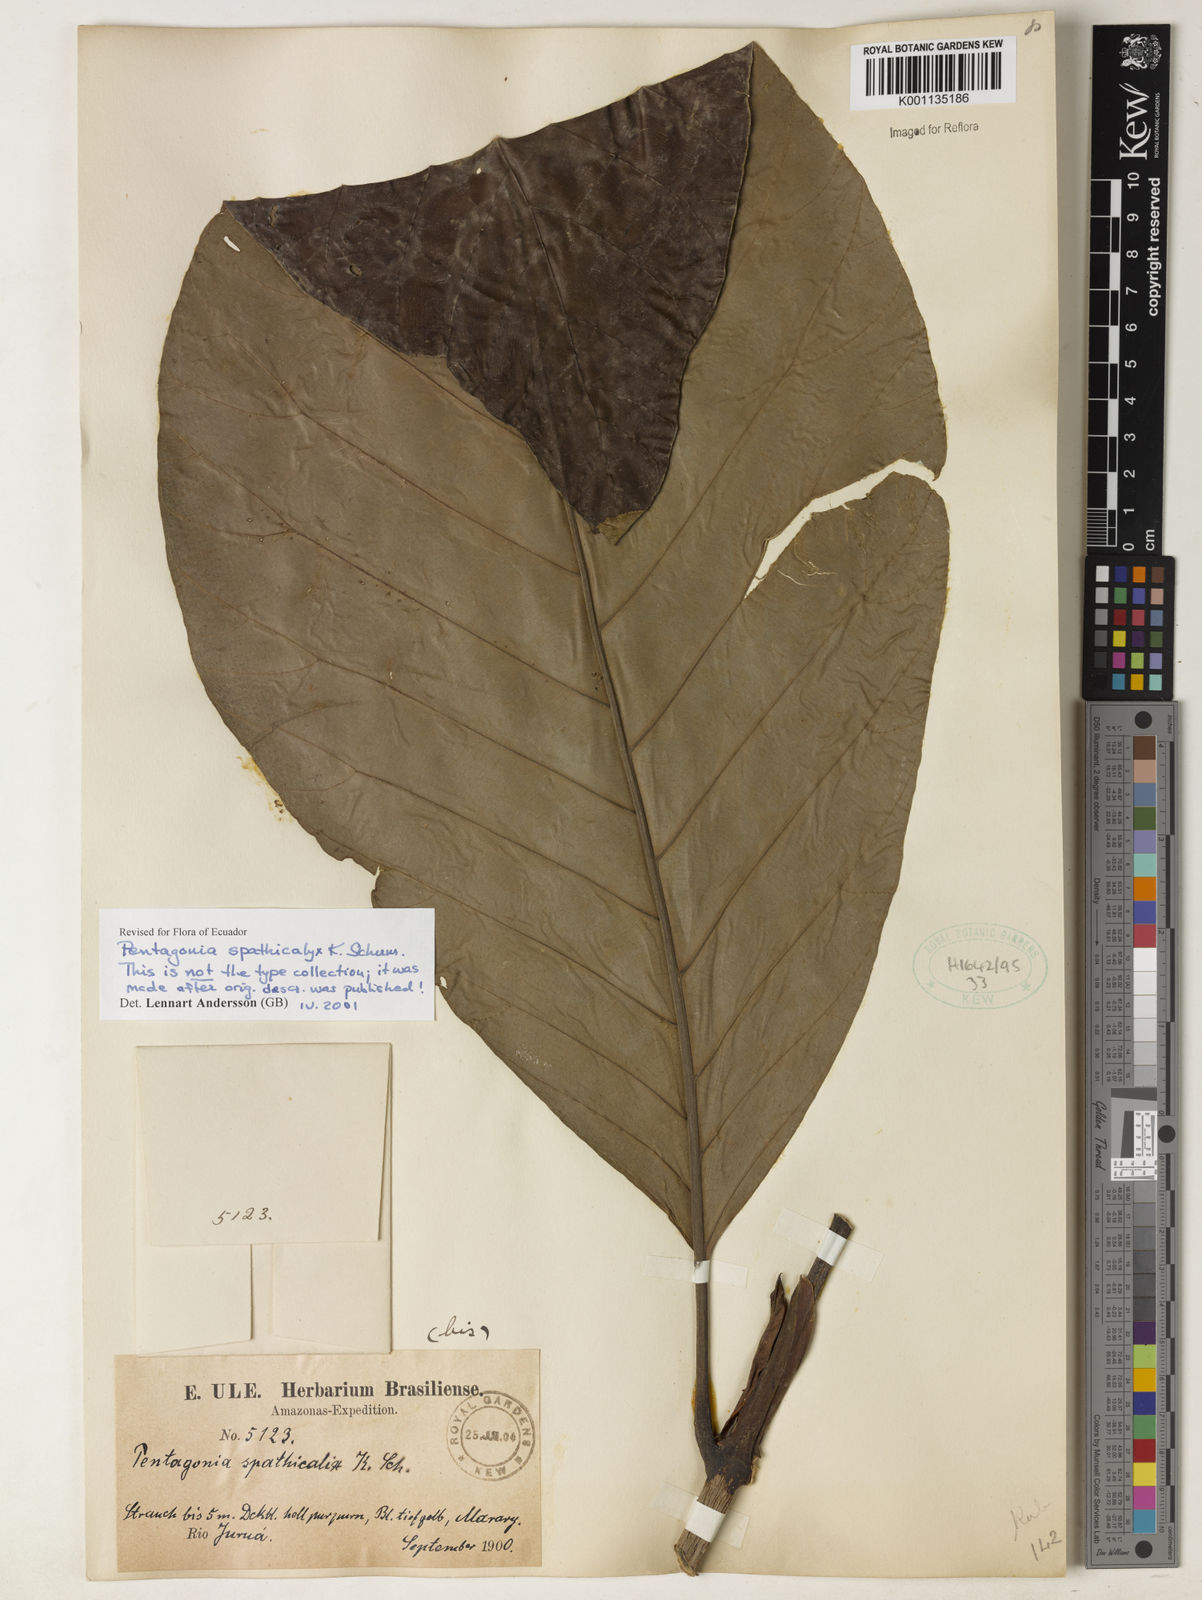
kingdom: Plantae
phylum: Tracheophyta
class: Magnoliopsida
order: Gentianales
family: Rubiaceae
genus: Pentagonia
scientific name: Pentagonia spathicalyx
